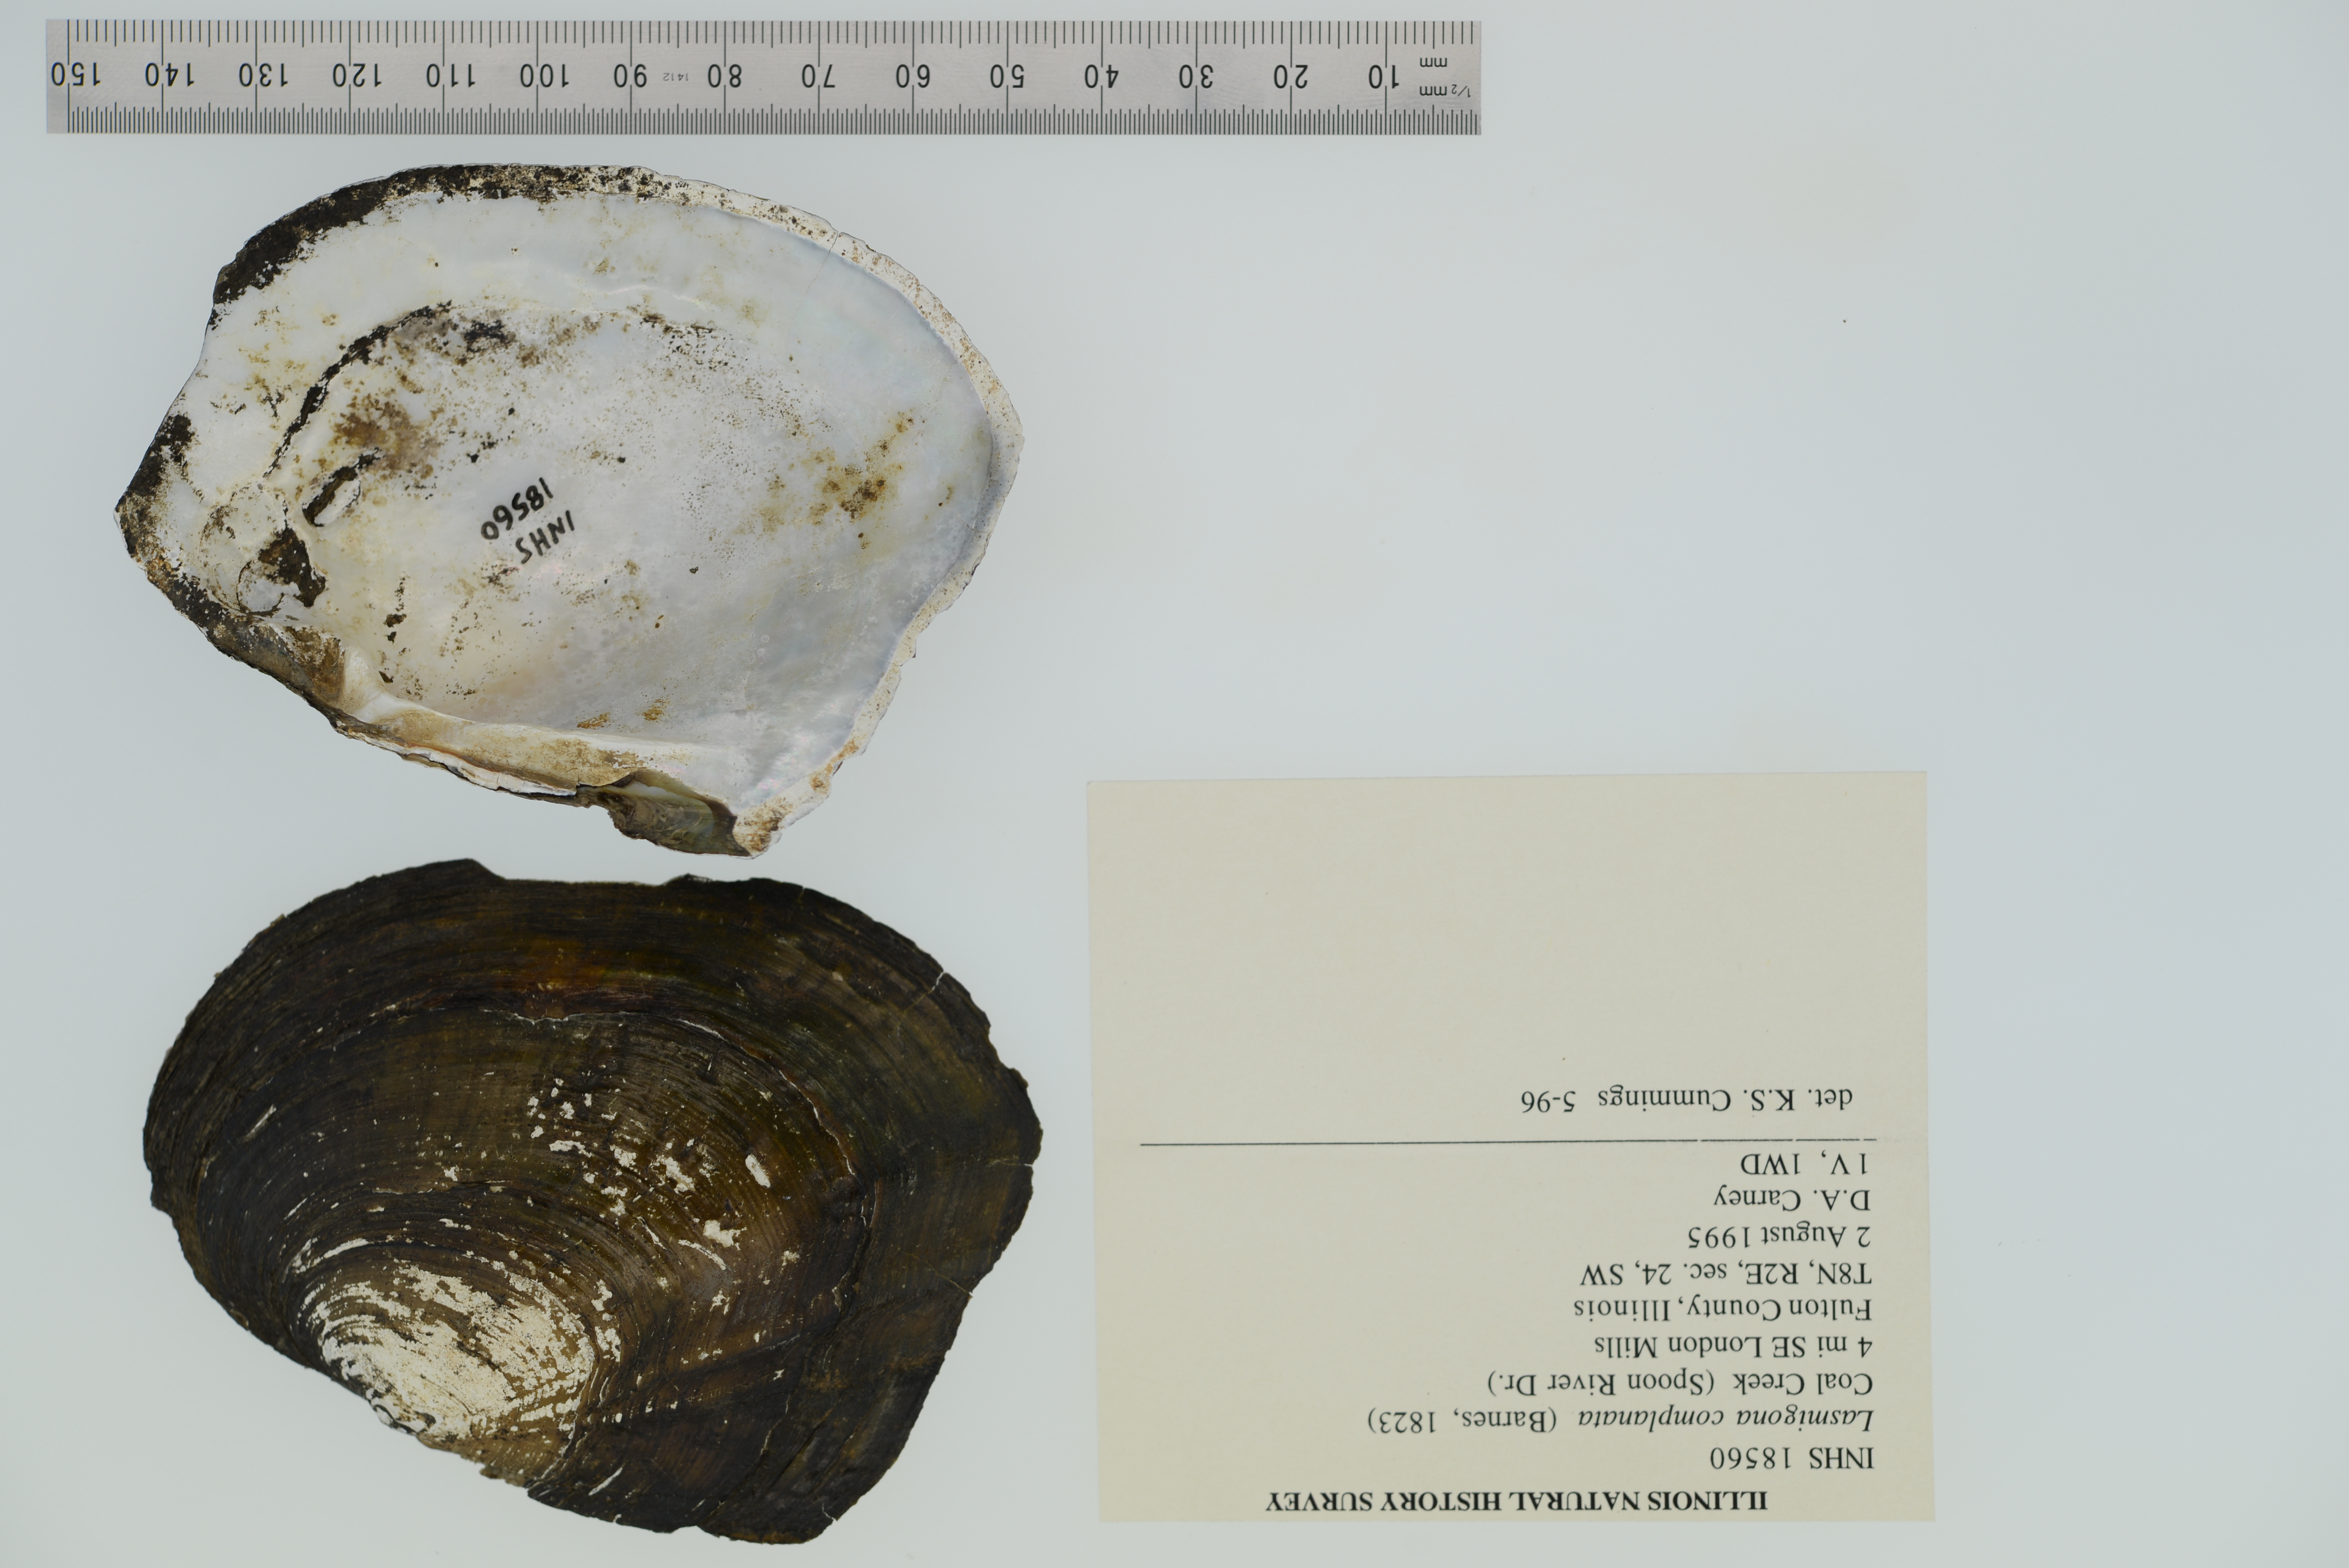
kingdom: Animalia
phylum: Mollusca
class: Bivalvia
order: Unionida
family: Unionidae
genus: Lasmigona
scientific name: Lasmigona complanata
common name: White heelsplitter
